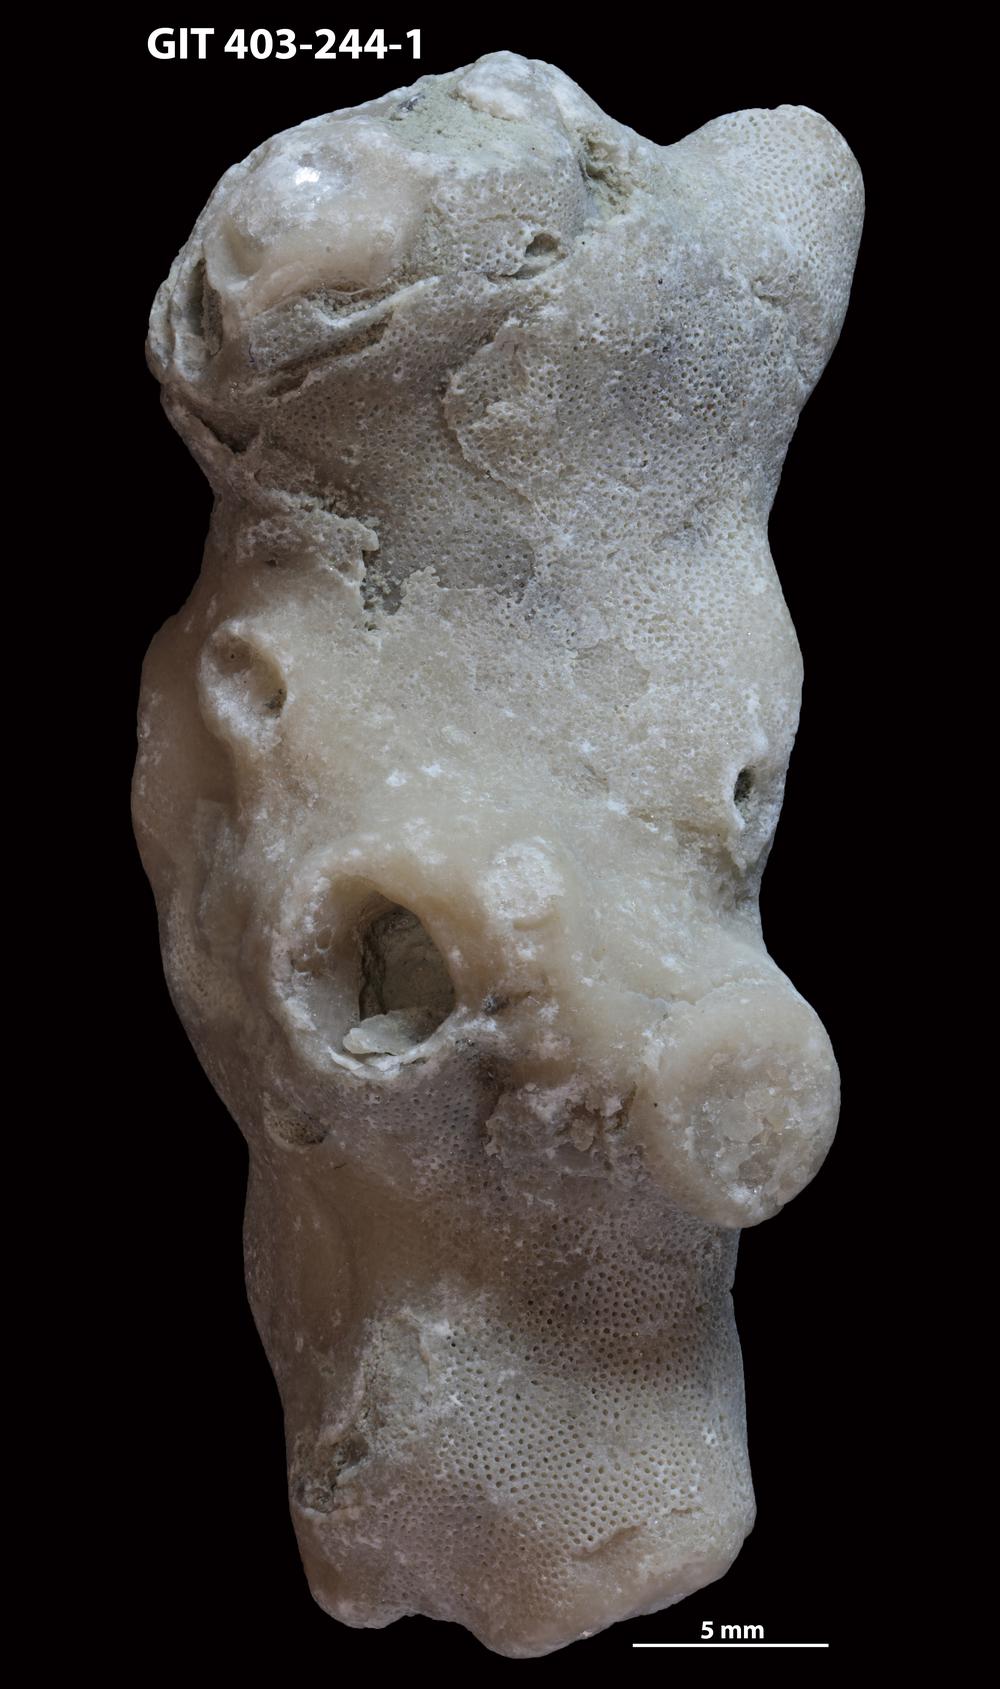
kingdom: Animalia
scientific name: Animalia
